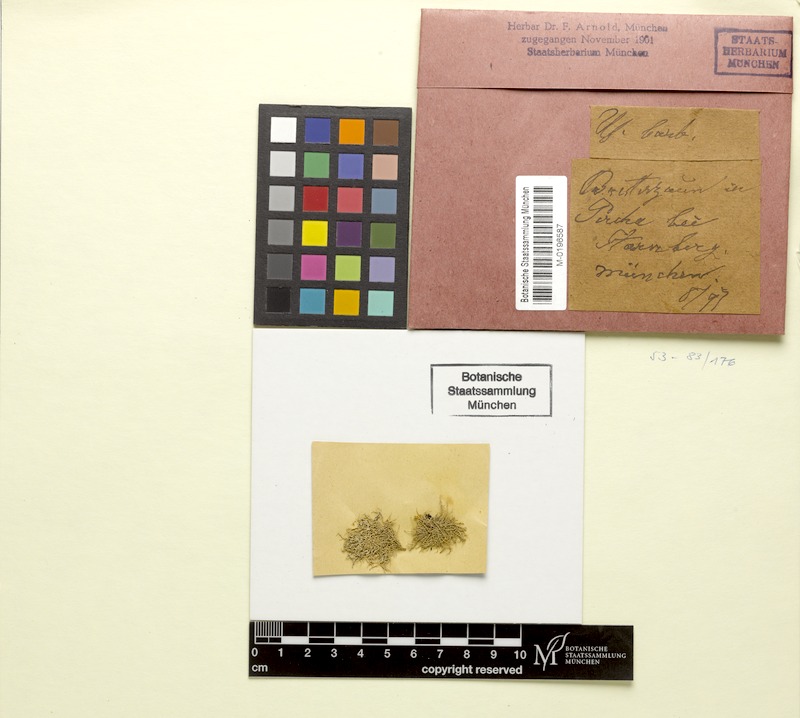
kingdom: Fungi
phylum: Ascomycota
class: Lecanoromycetes
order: Lecanorales
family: Parmeliaceae
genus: Usnea
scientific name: Usnea florida
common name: Witches' whiskers lichen
